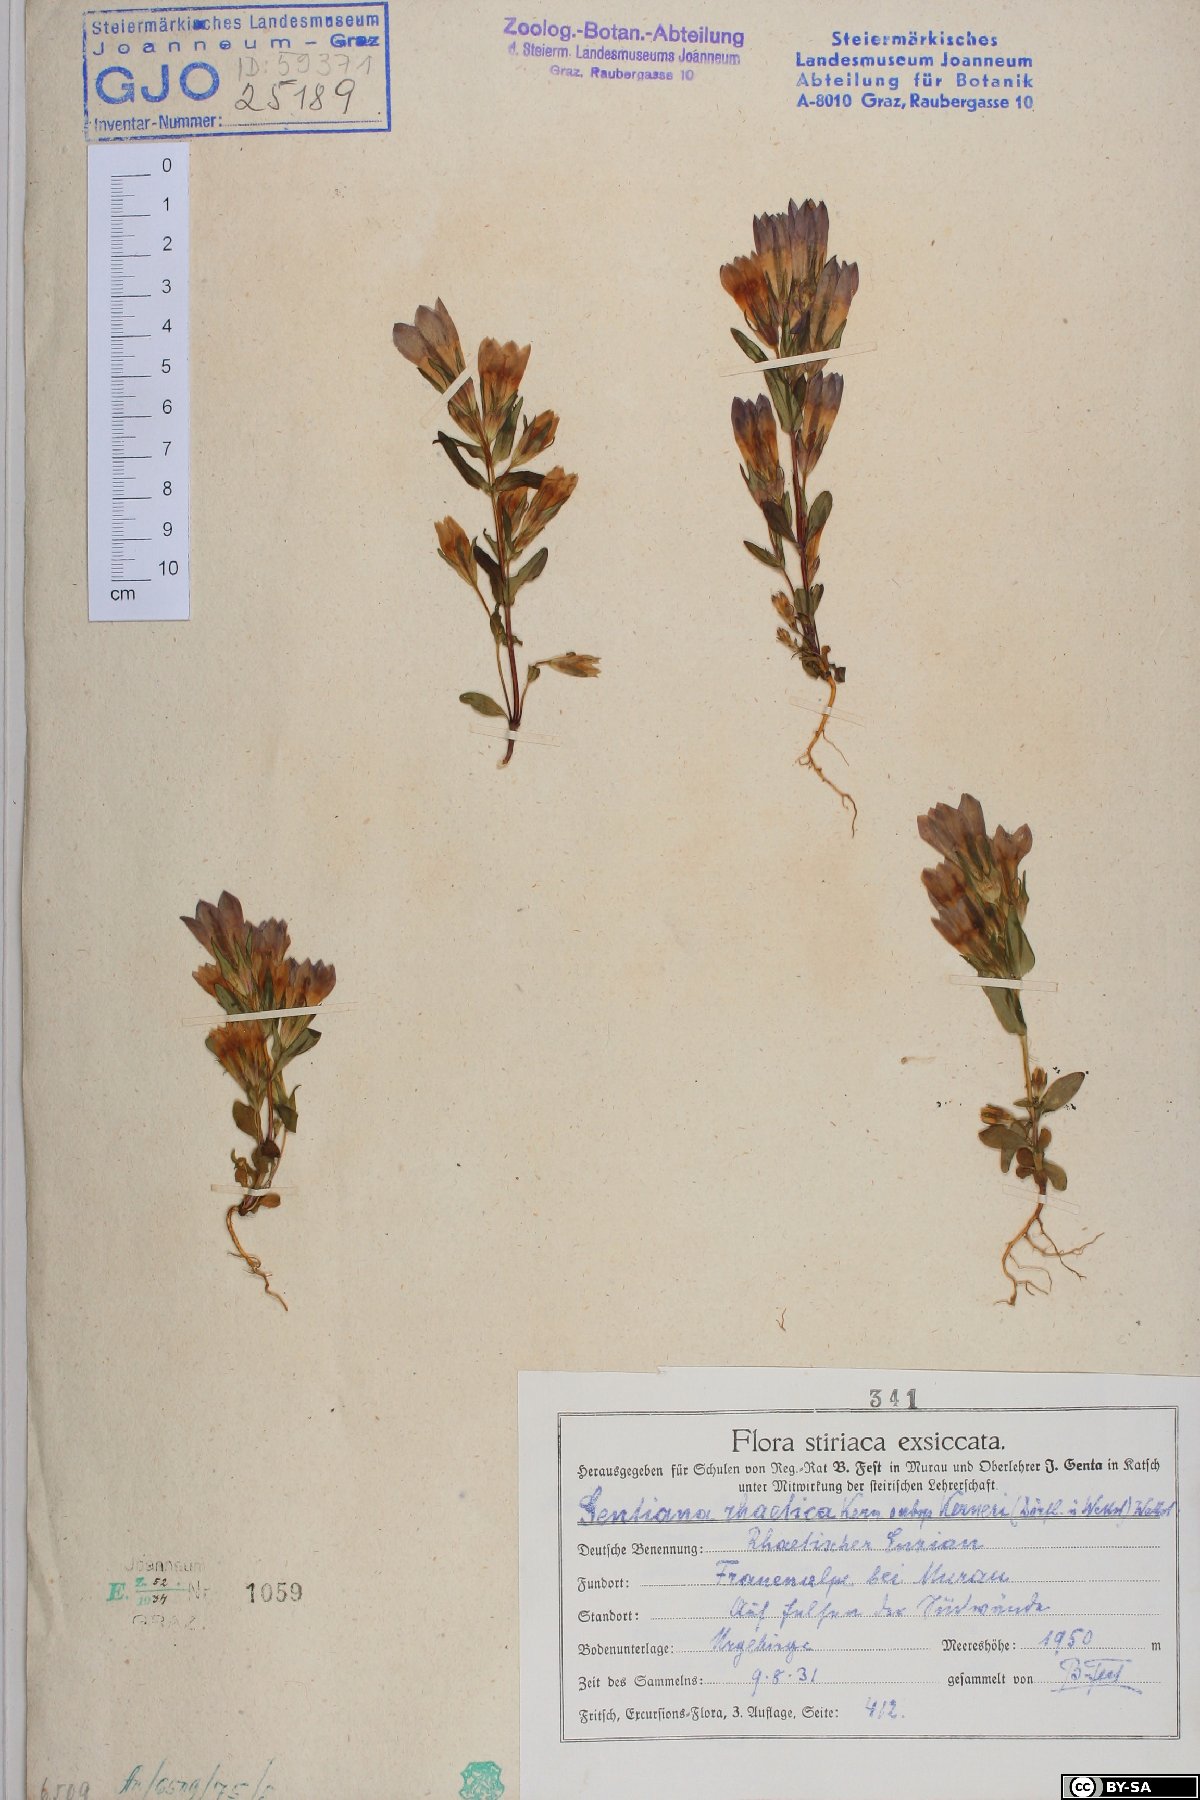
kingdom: Plantae
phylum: Tracheophyta
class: Magnoliopsida
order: Gentianales
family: Gentianaceae
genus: Gentianella
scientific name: Gentianella rhaetica
